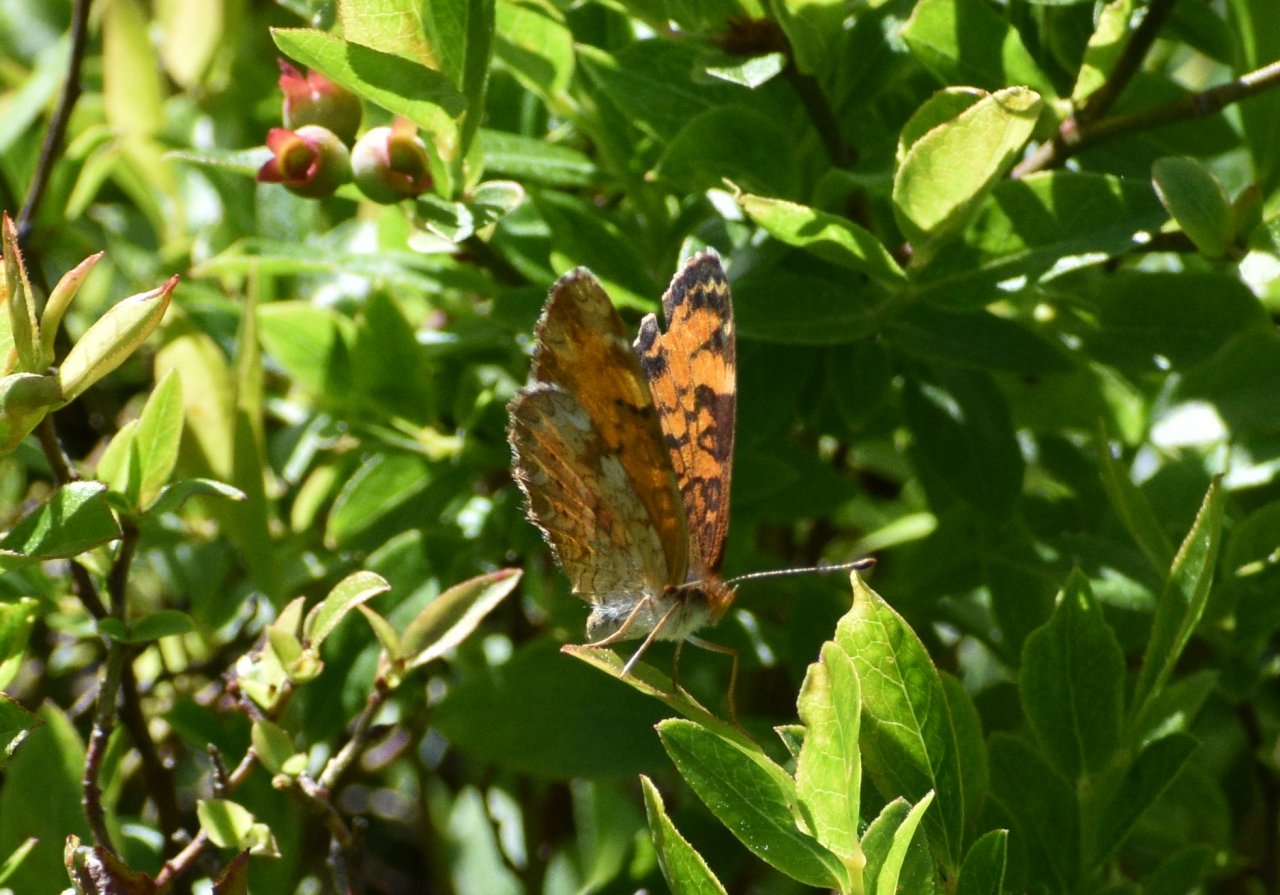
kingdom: Animalia
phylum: Arthropoda
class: Insecta
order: Lepidoptera
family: Nymphalidae
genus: Phyciodes
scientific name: Phyciodes tharos
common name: Northern Crescent
